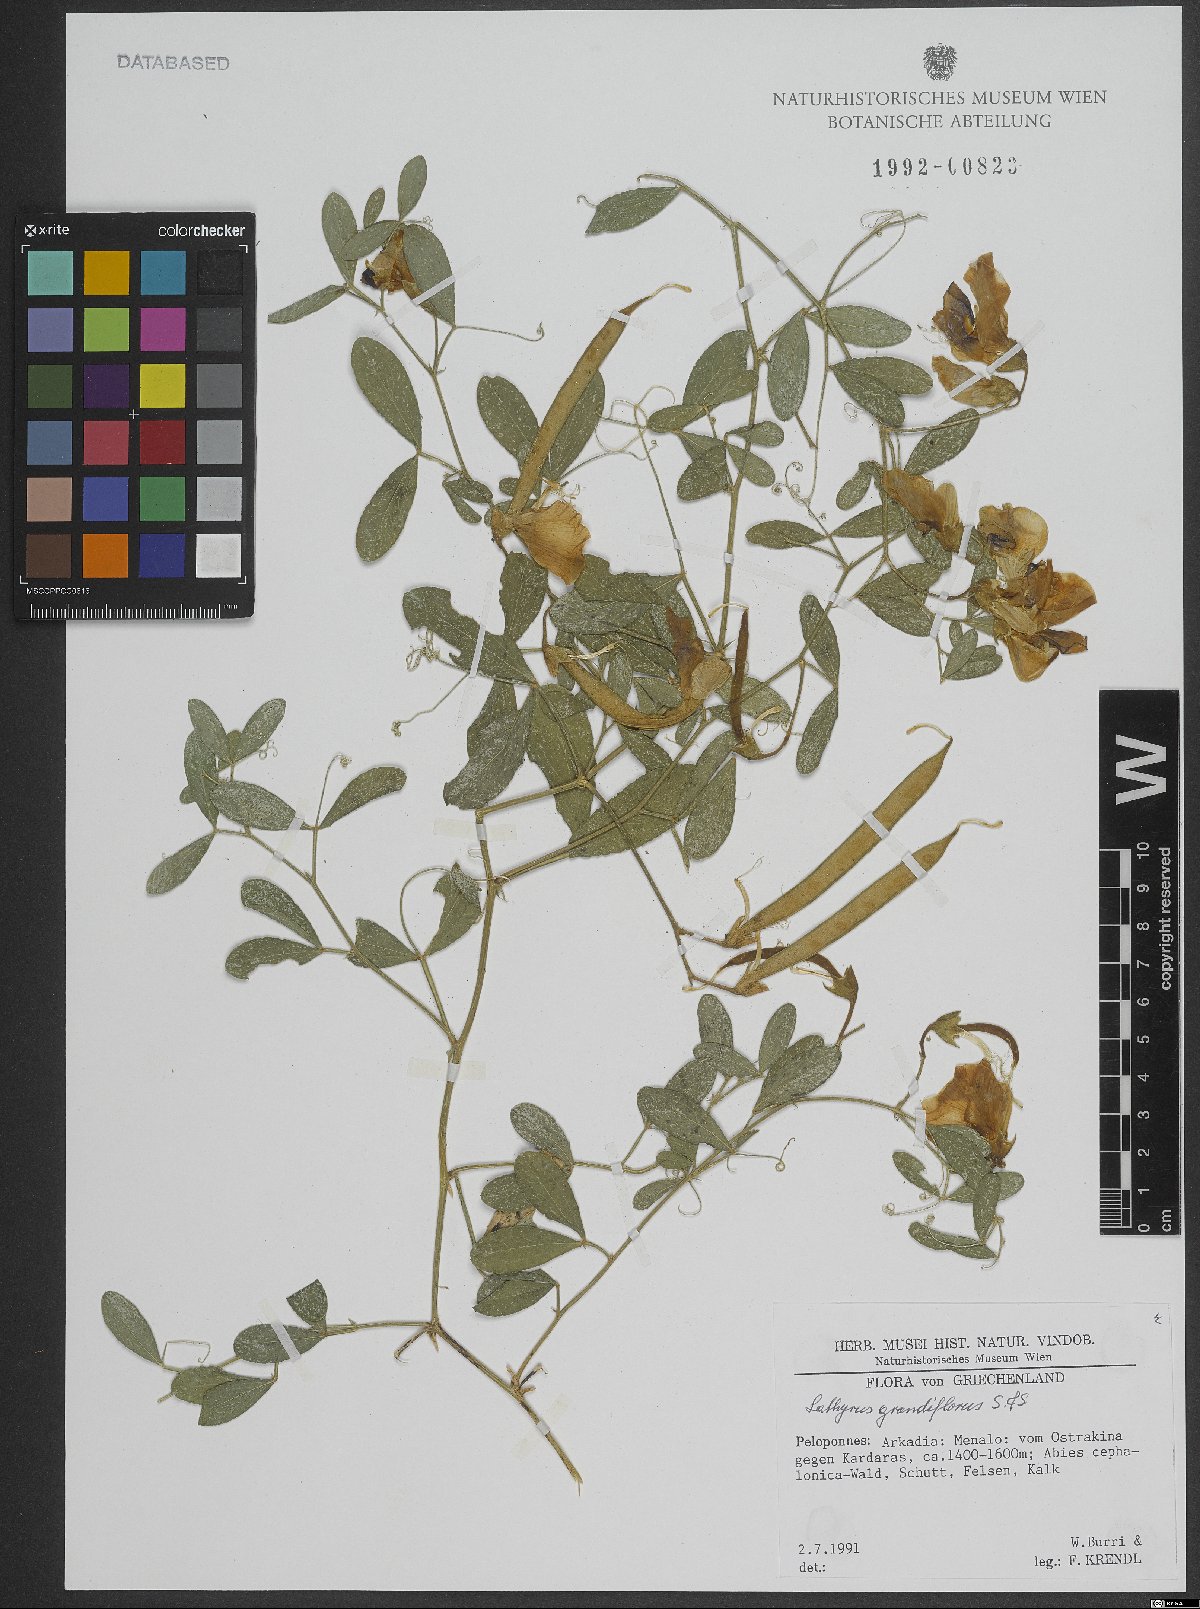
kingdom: Plantae
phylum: Tracheophyta
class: Magnoliopsida
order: Fabales
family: Fabaceae
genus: Lathyrus
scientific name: Lathyrus grandiflorus
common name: Two-flowered everlasting-pea
